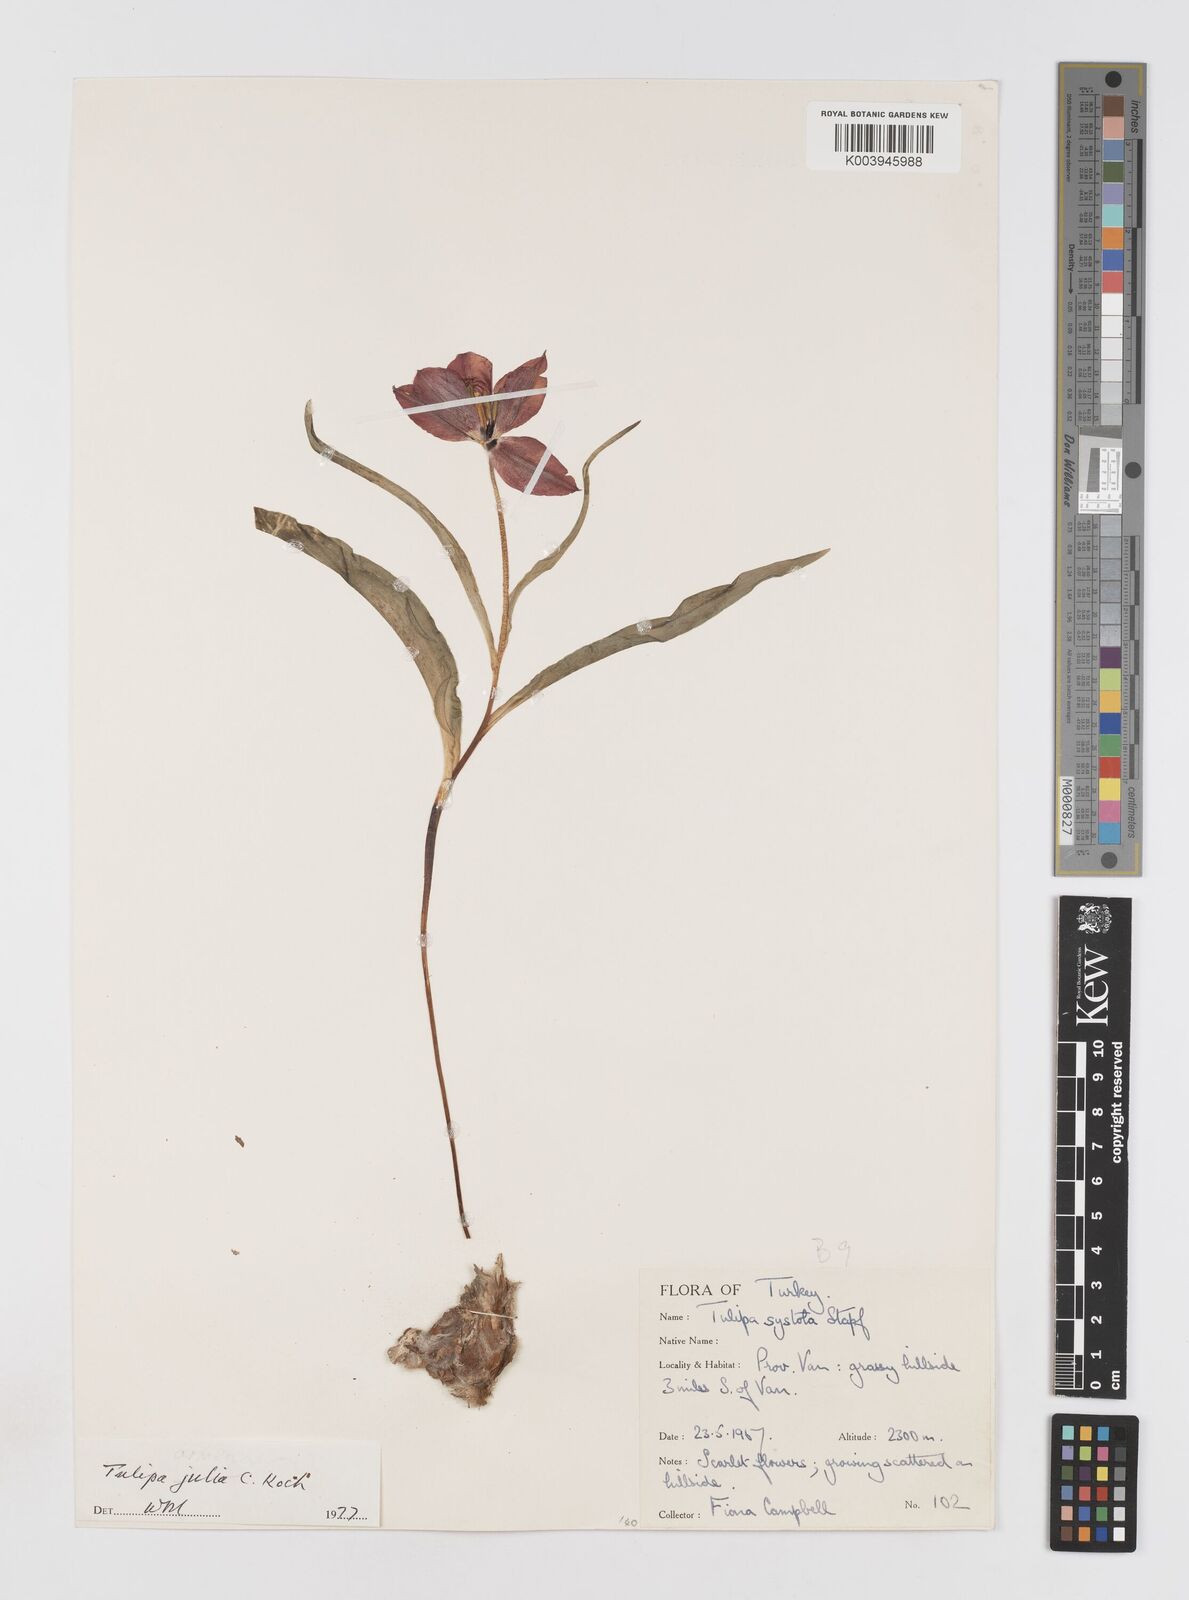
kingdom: Plantae
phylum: Tracheophyta
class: Liliopsida
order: Liliales
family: Liliaceae
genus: Tulipa
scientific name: Tulipa julia
